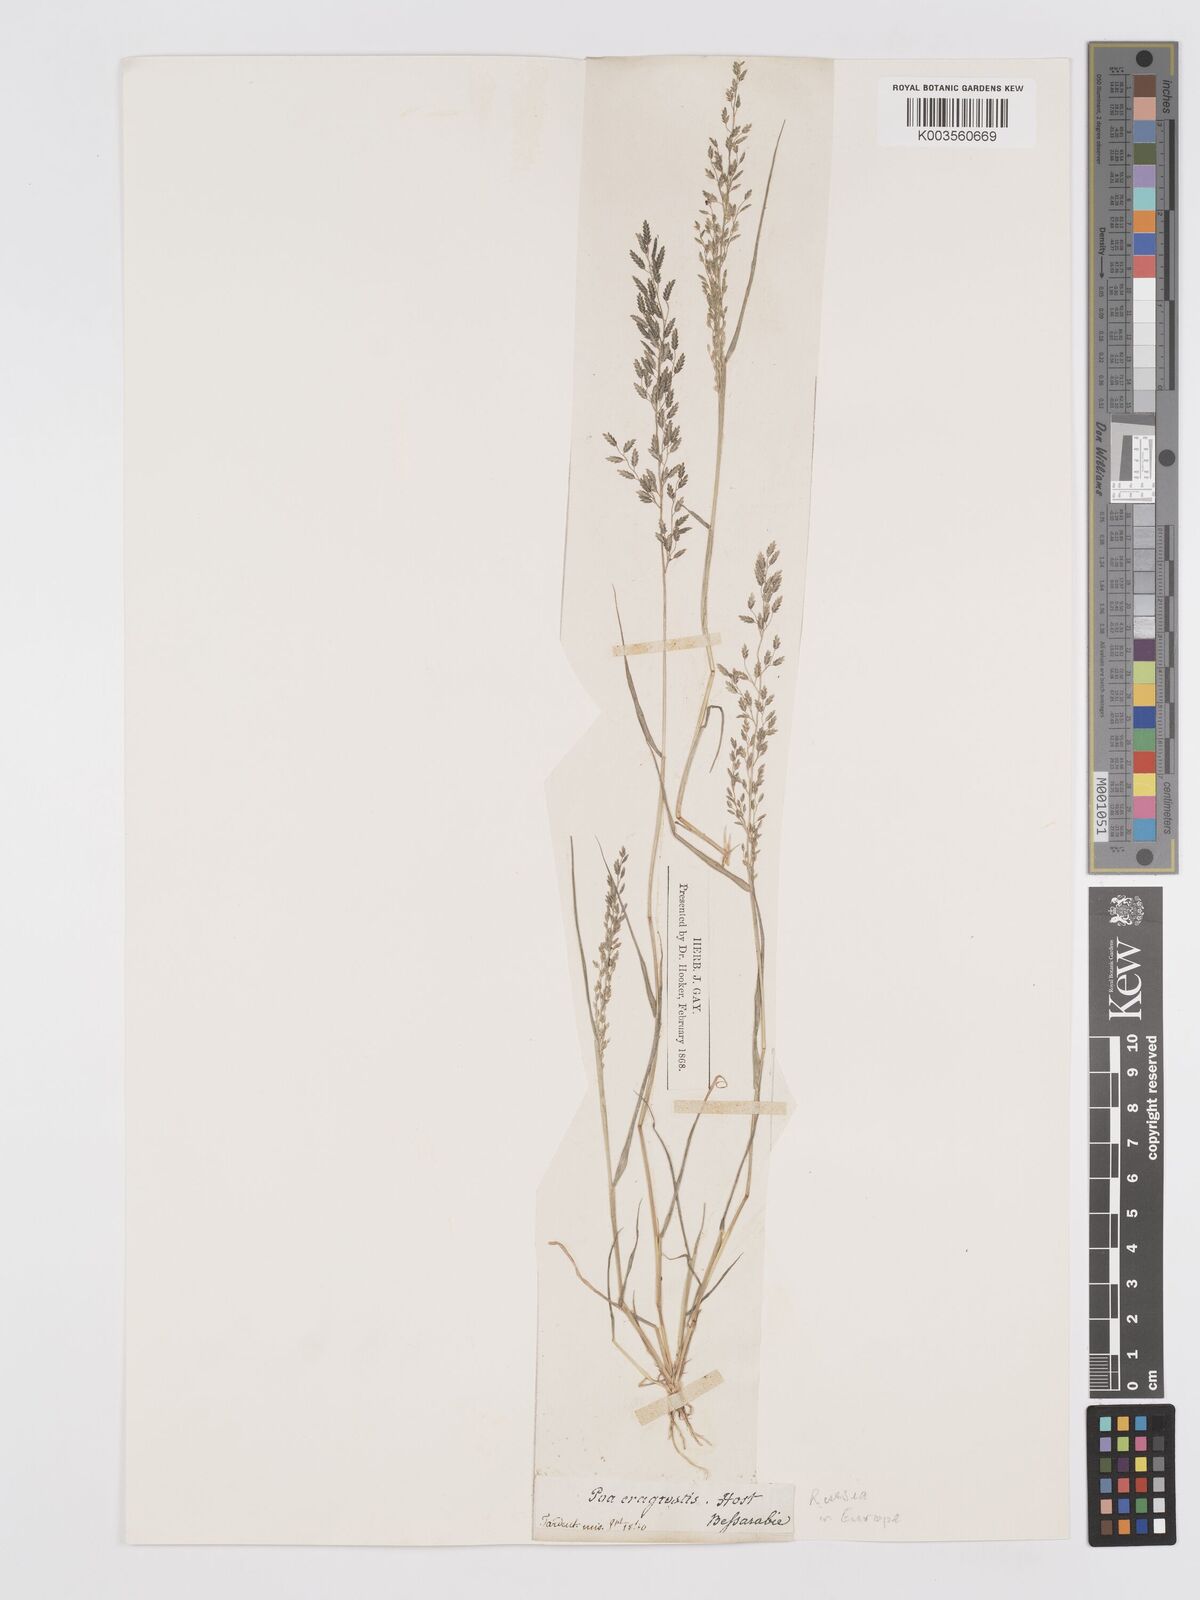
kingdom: Plantae
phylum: Tracheophyta
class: Liliopsida
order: Poales
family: Poaceae
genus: Eragrostis
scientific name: Eragrostis minor
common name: Small love-grass
